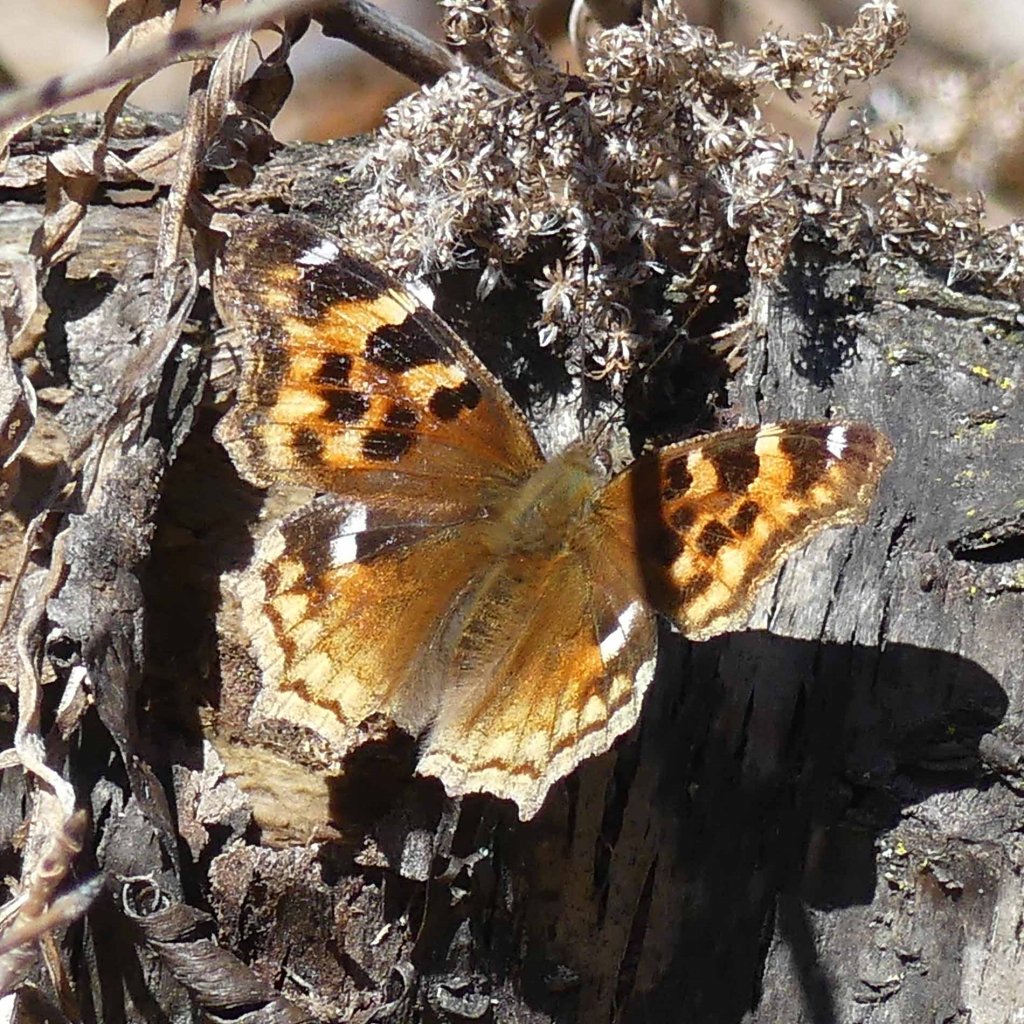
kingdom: Animalia
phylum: Arthropoda
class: Insecta
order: Lepidoptera
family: Nymphalidae
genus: Polygonia
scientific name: Polygonia vaualbum
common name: Compton Tortoiseshell
